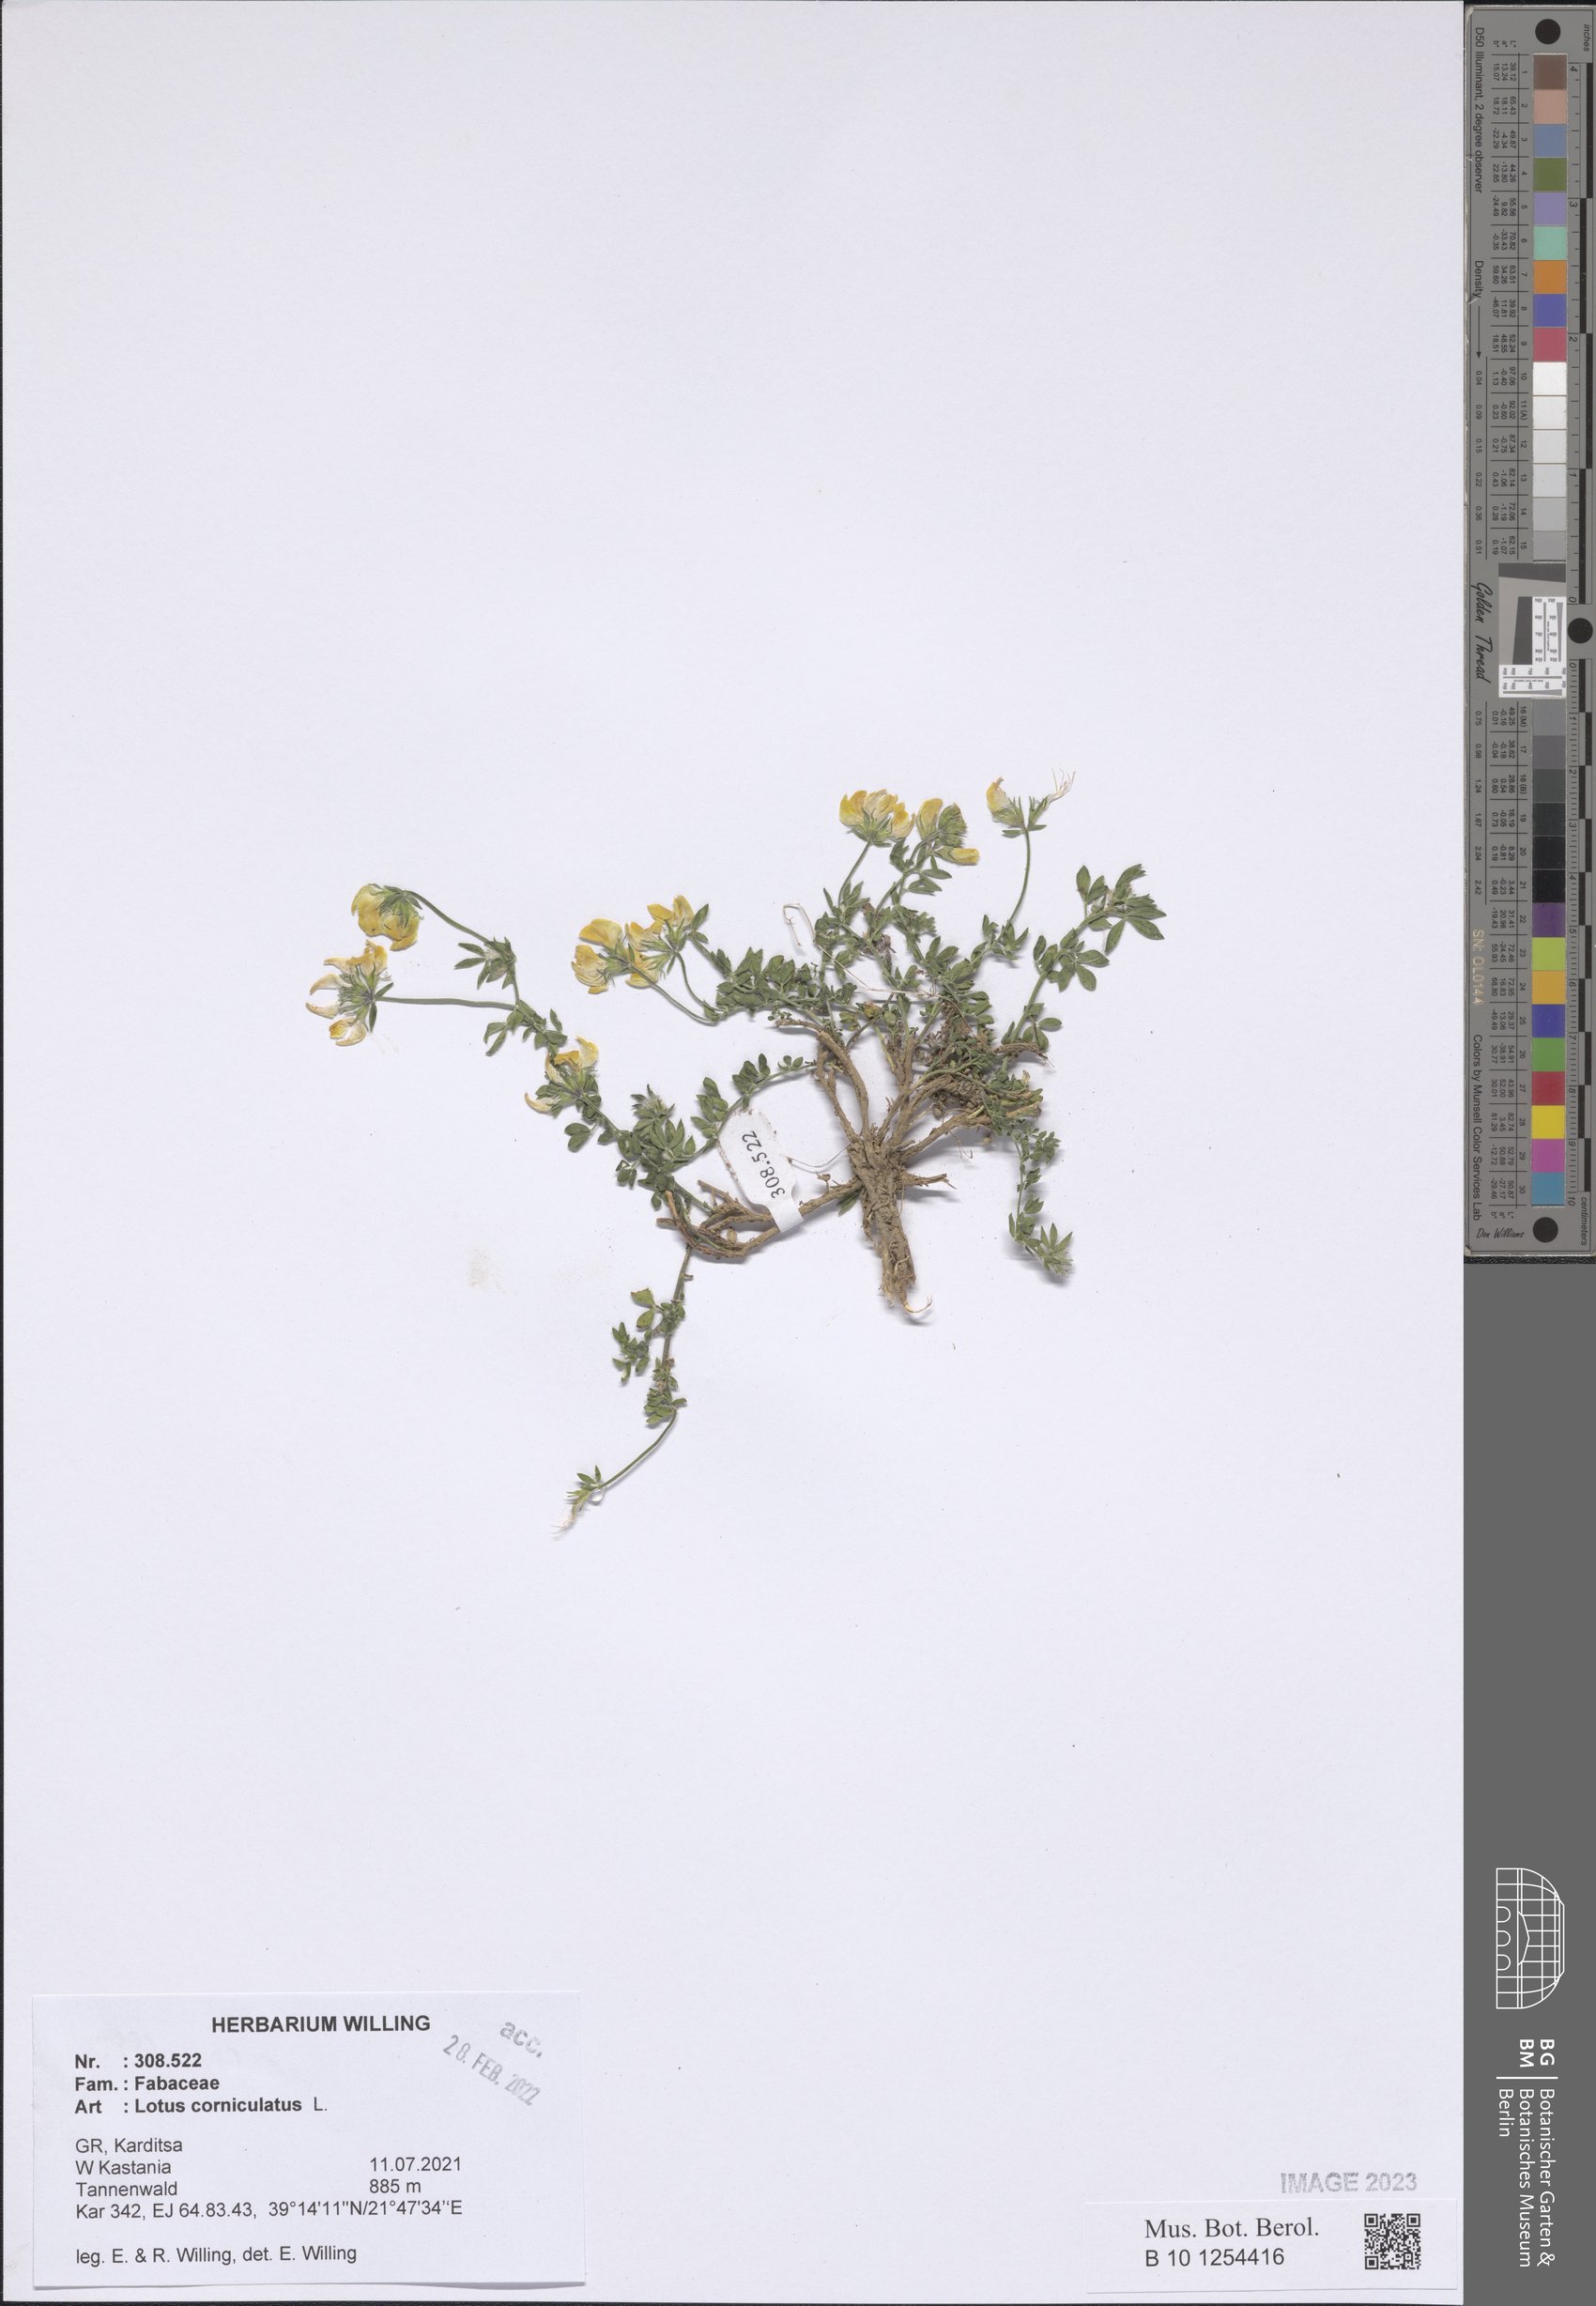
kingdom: Plantae
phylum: Tracheophyta
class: Magnoliopsida
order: Fabales
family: Fabaceae
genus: Lotus
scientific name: Lotus corniculatus
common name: Common bird's-foot-trefoil
